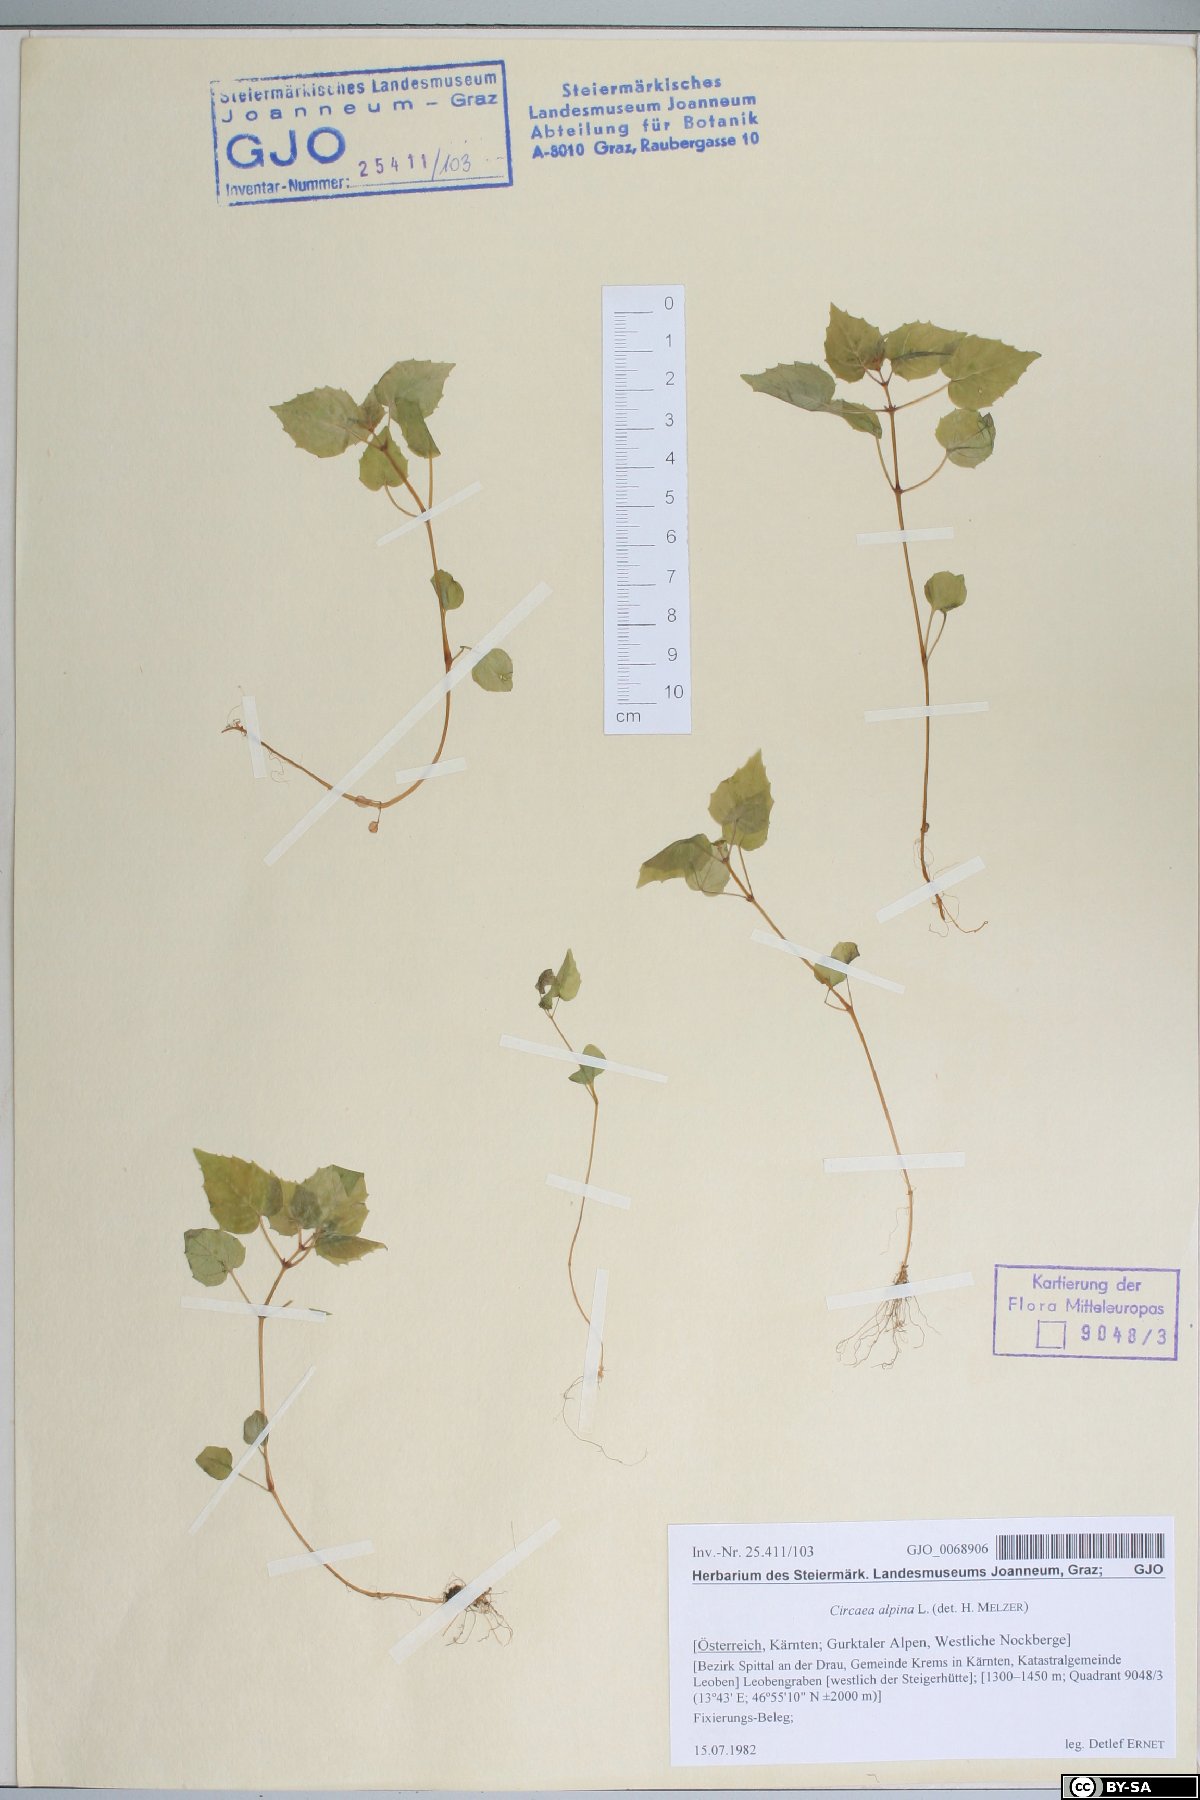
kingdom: Plantae
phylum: Tracheophyta
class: Magnoliopsida
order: Myrtales
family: Onagraceae
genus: Circaea
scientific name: Circaea alpina
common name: Alpine enchanter's-nightshade
